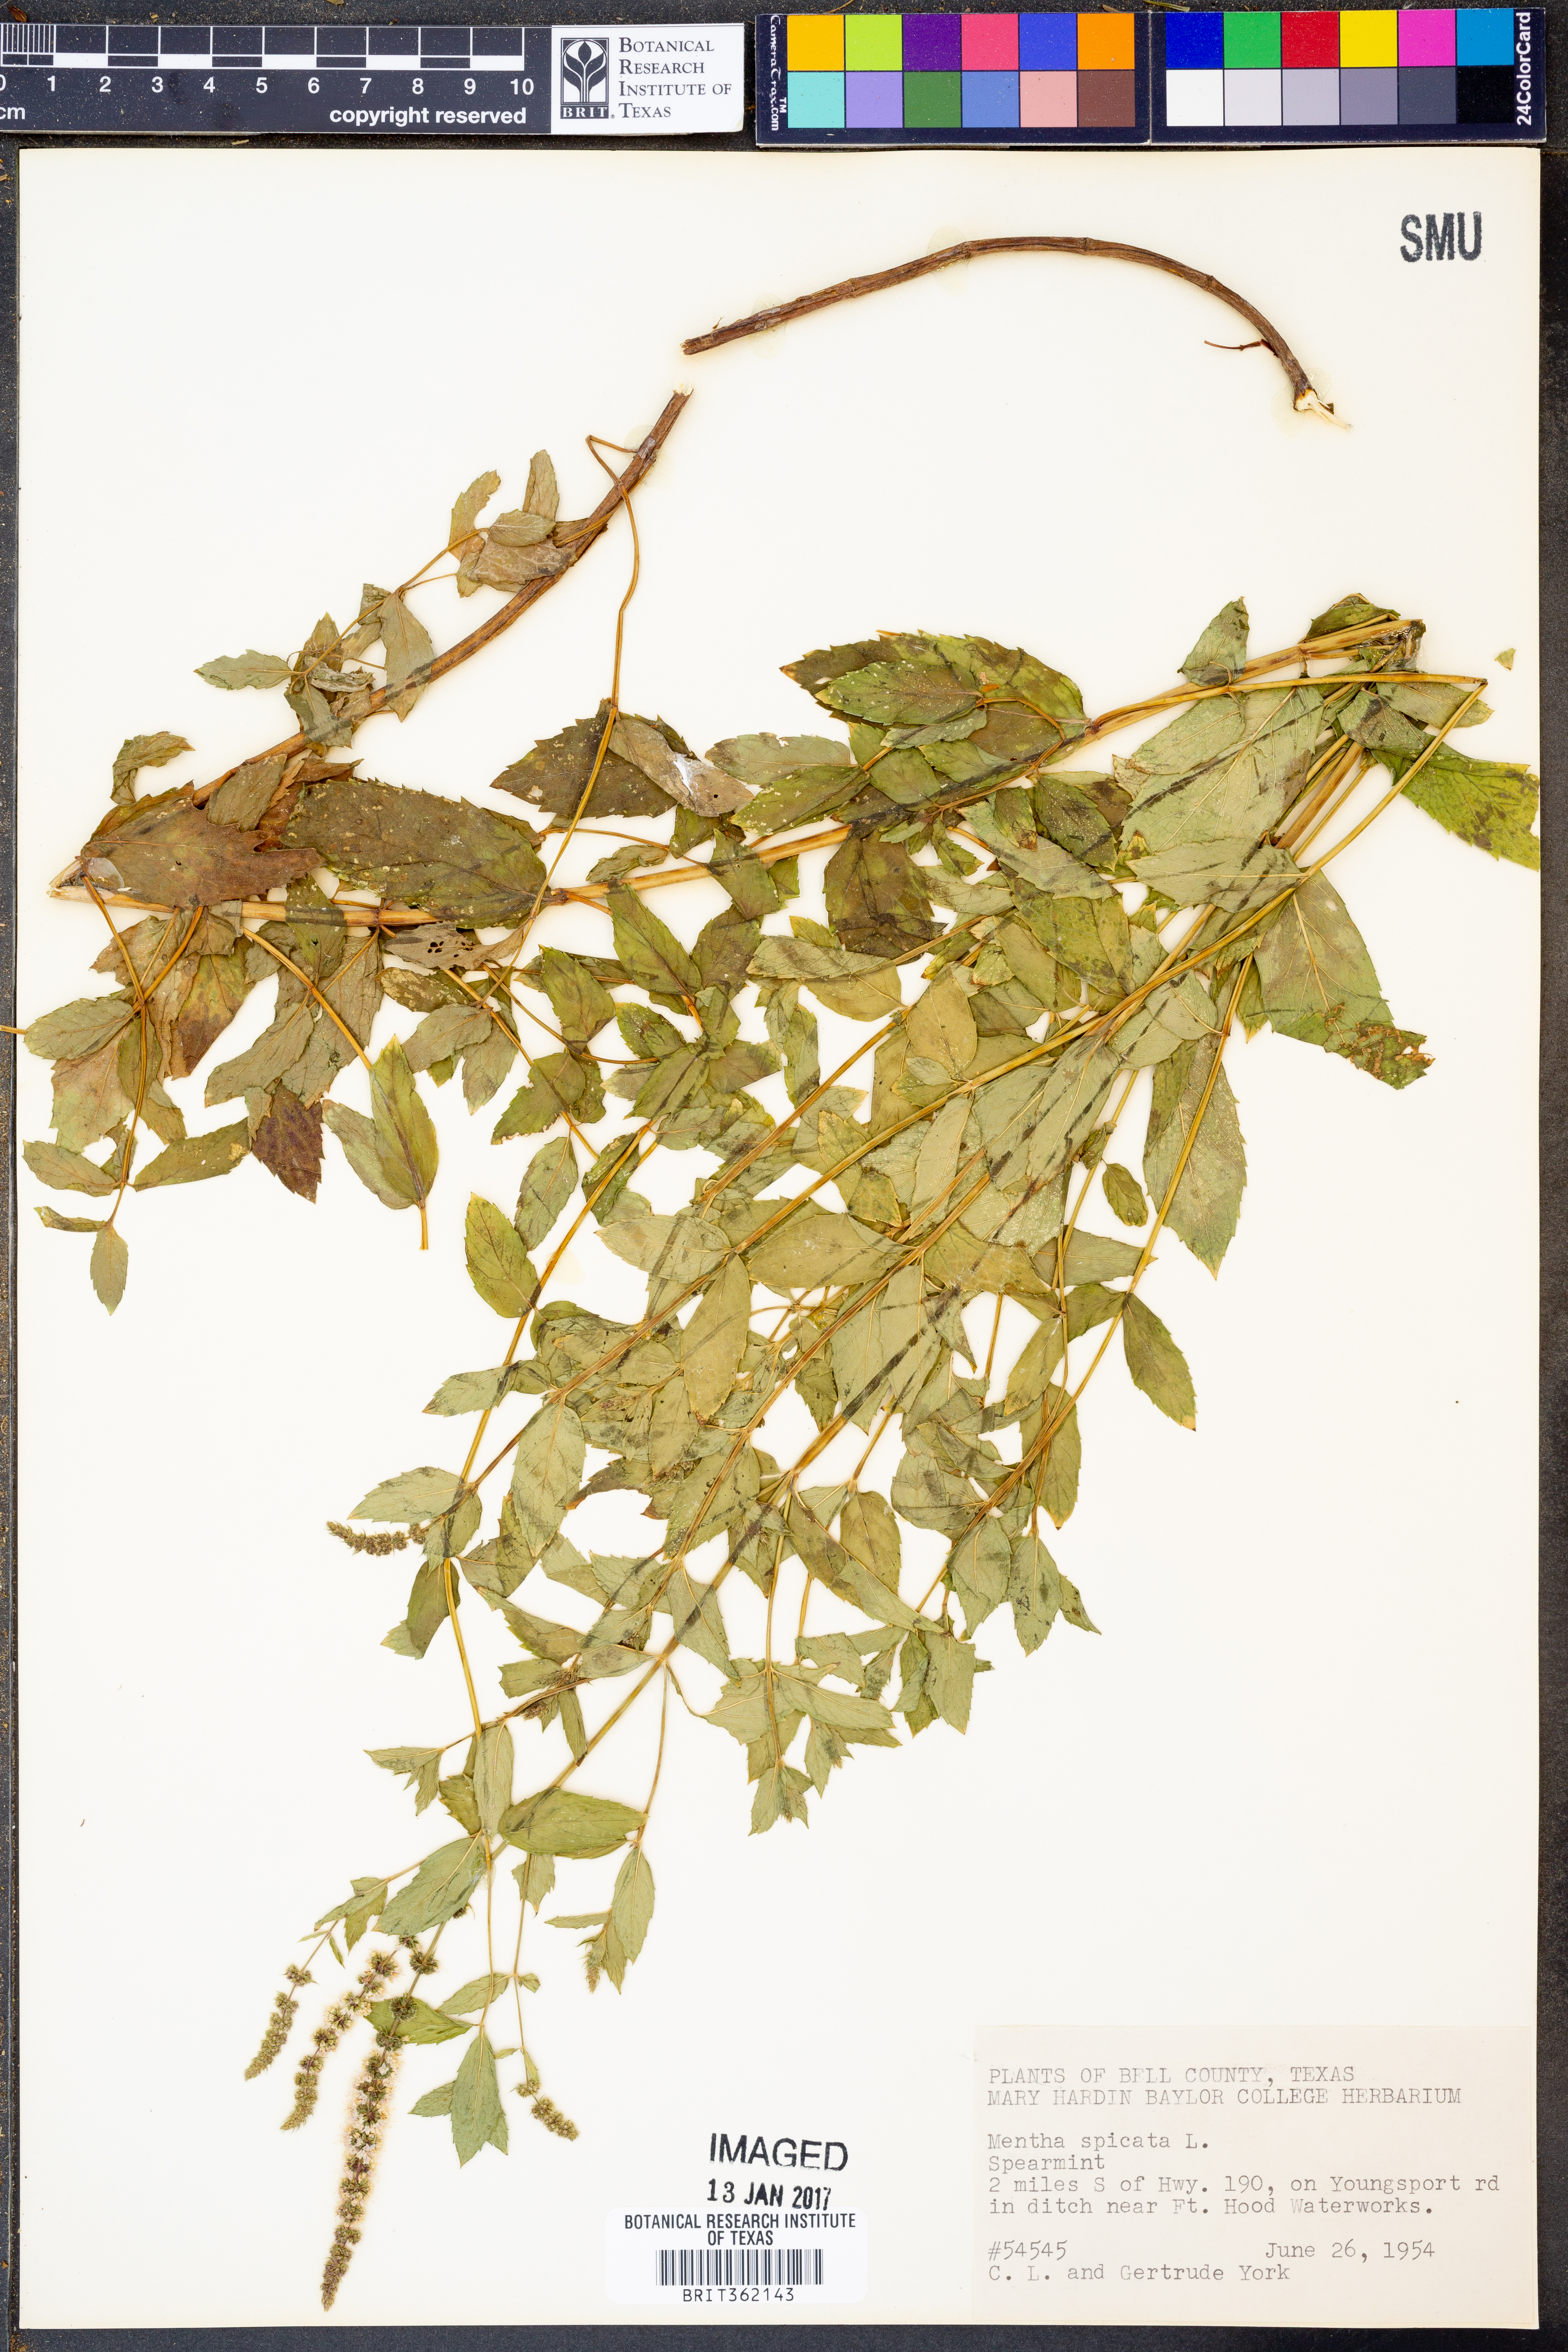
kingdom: Plantae
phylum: Tracheophyta
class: Magnoliopsida
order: Lamiales
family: Lamiaceae
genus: Mentha
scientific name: Mentha spicata
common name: Spearmint
